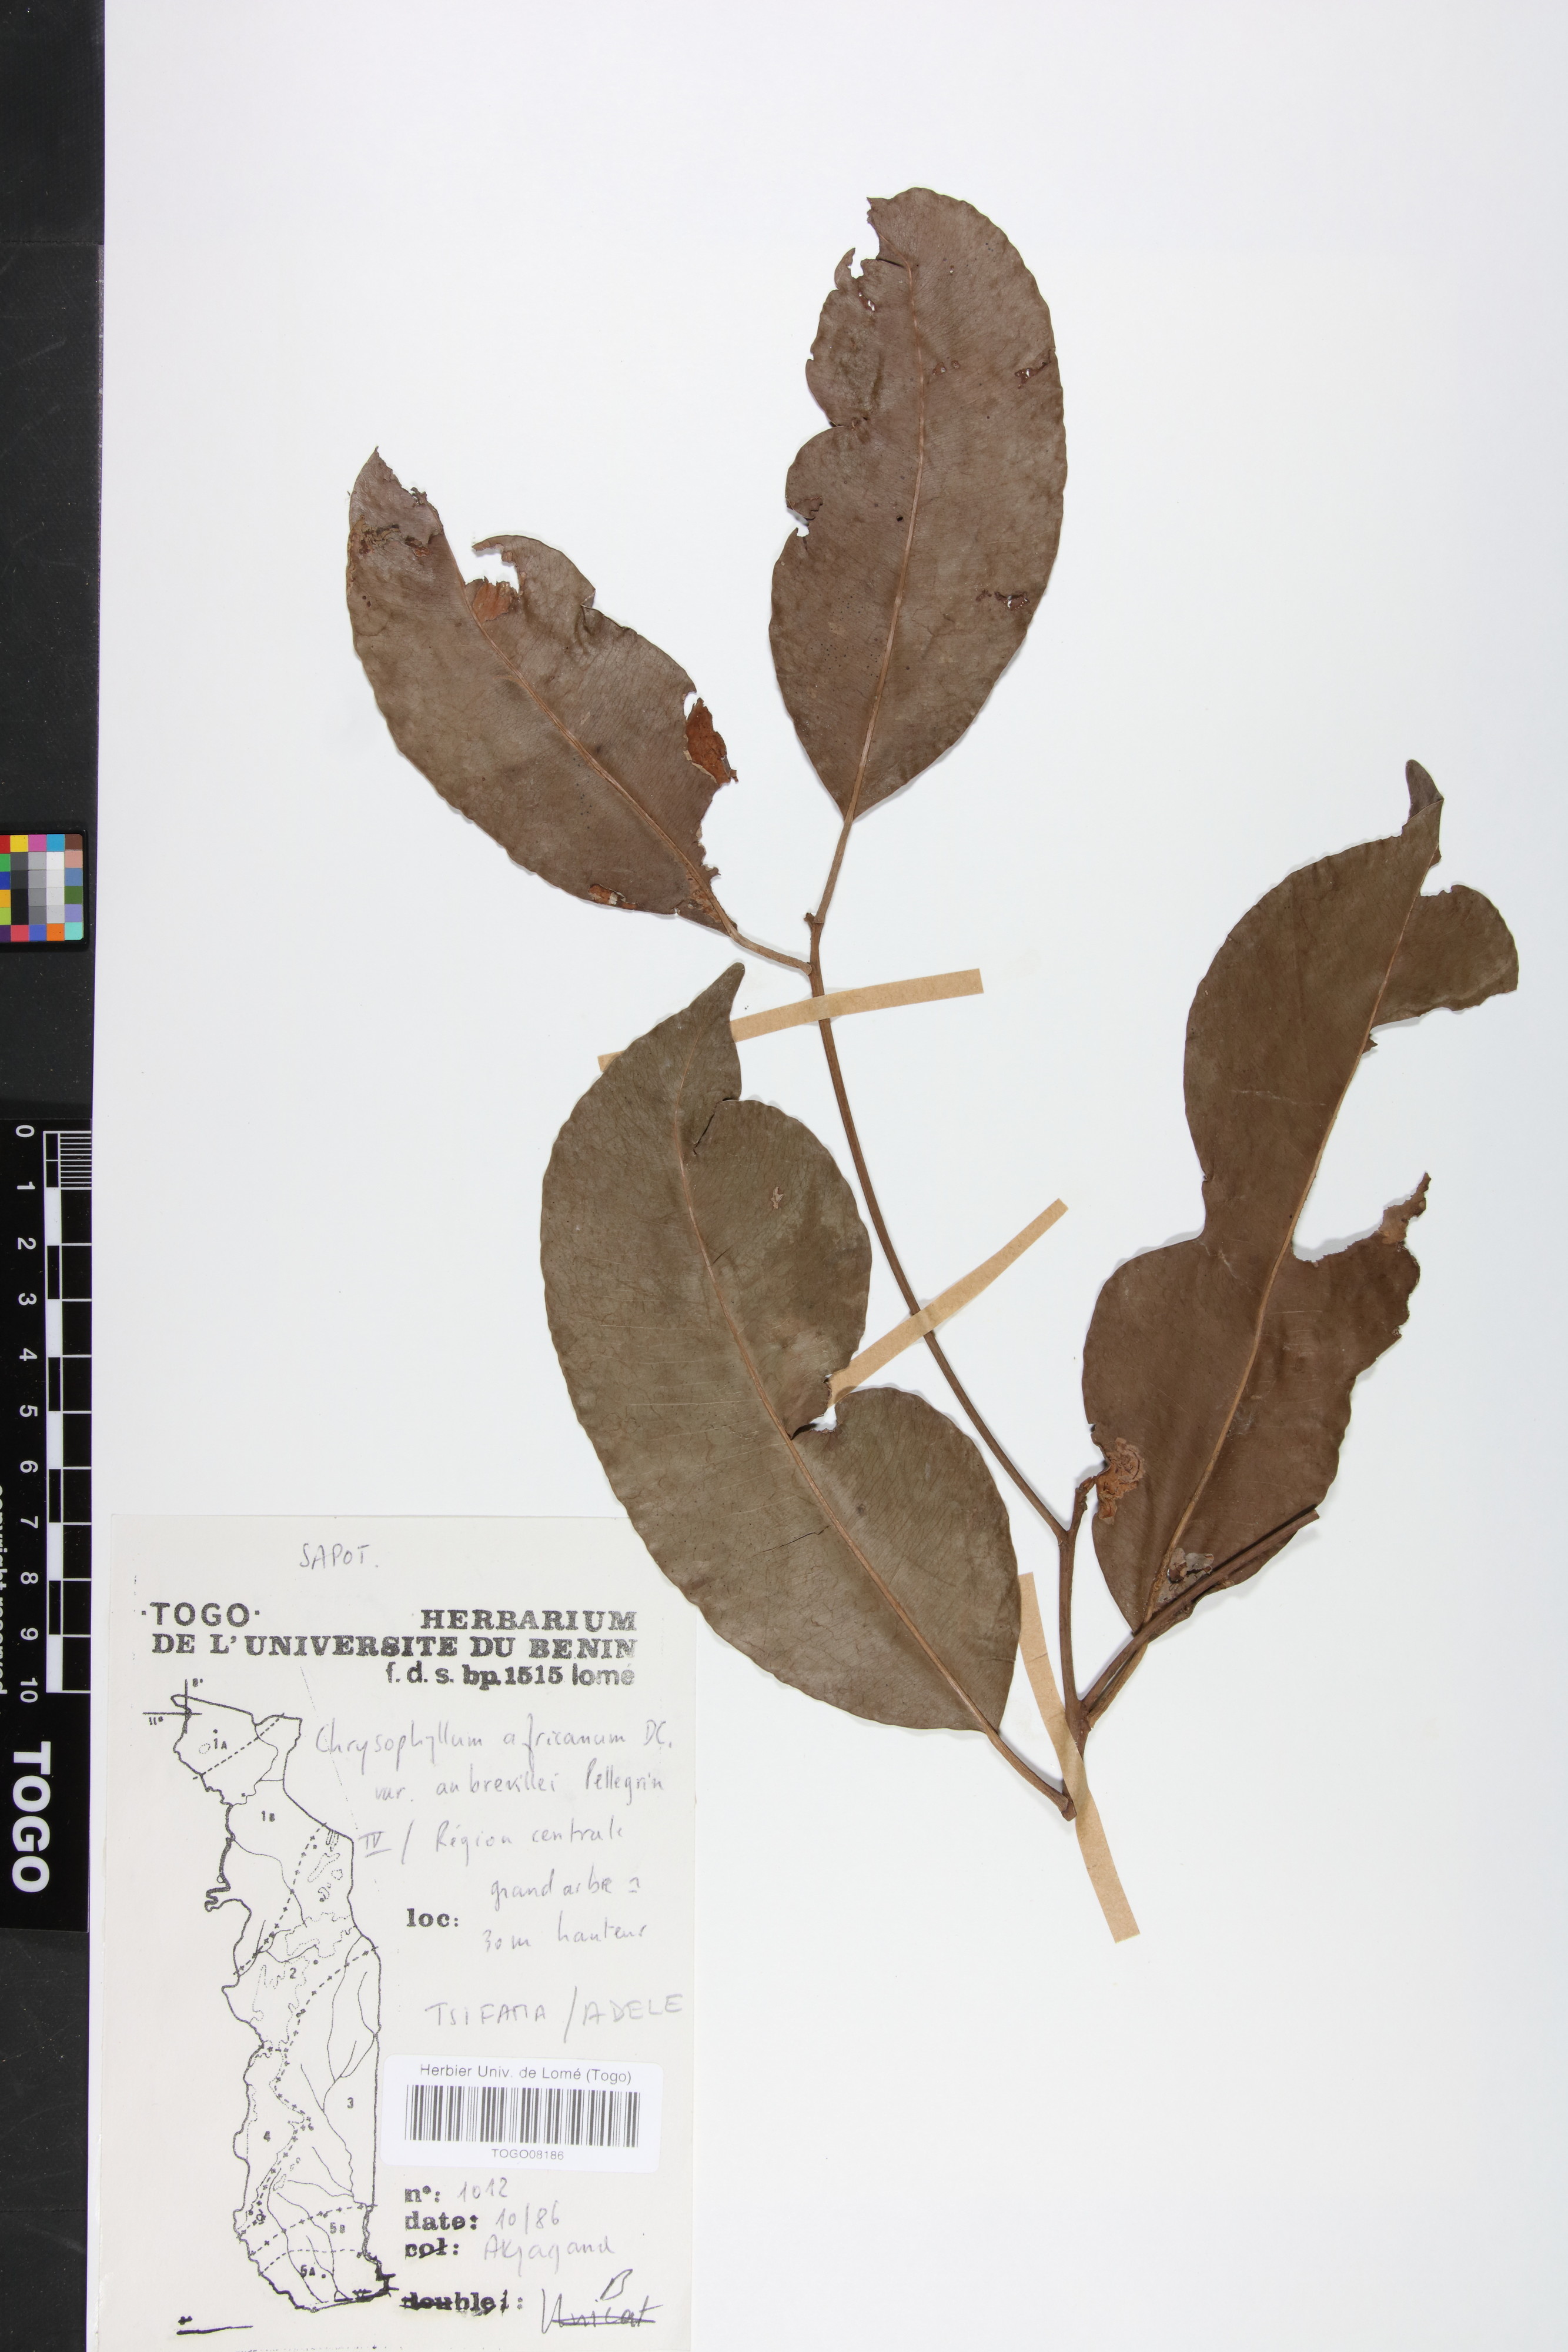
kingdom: Plantae
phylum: Tracheophyta
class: Magnoliopsida
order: Ericales
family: Sapotaceae
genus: Gambeya
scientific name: Gambeya africana
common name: African star apple
